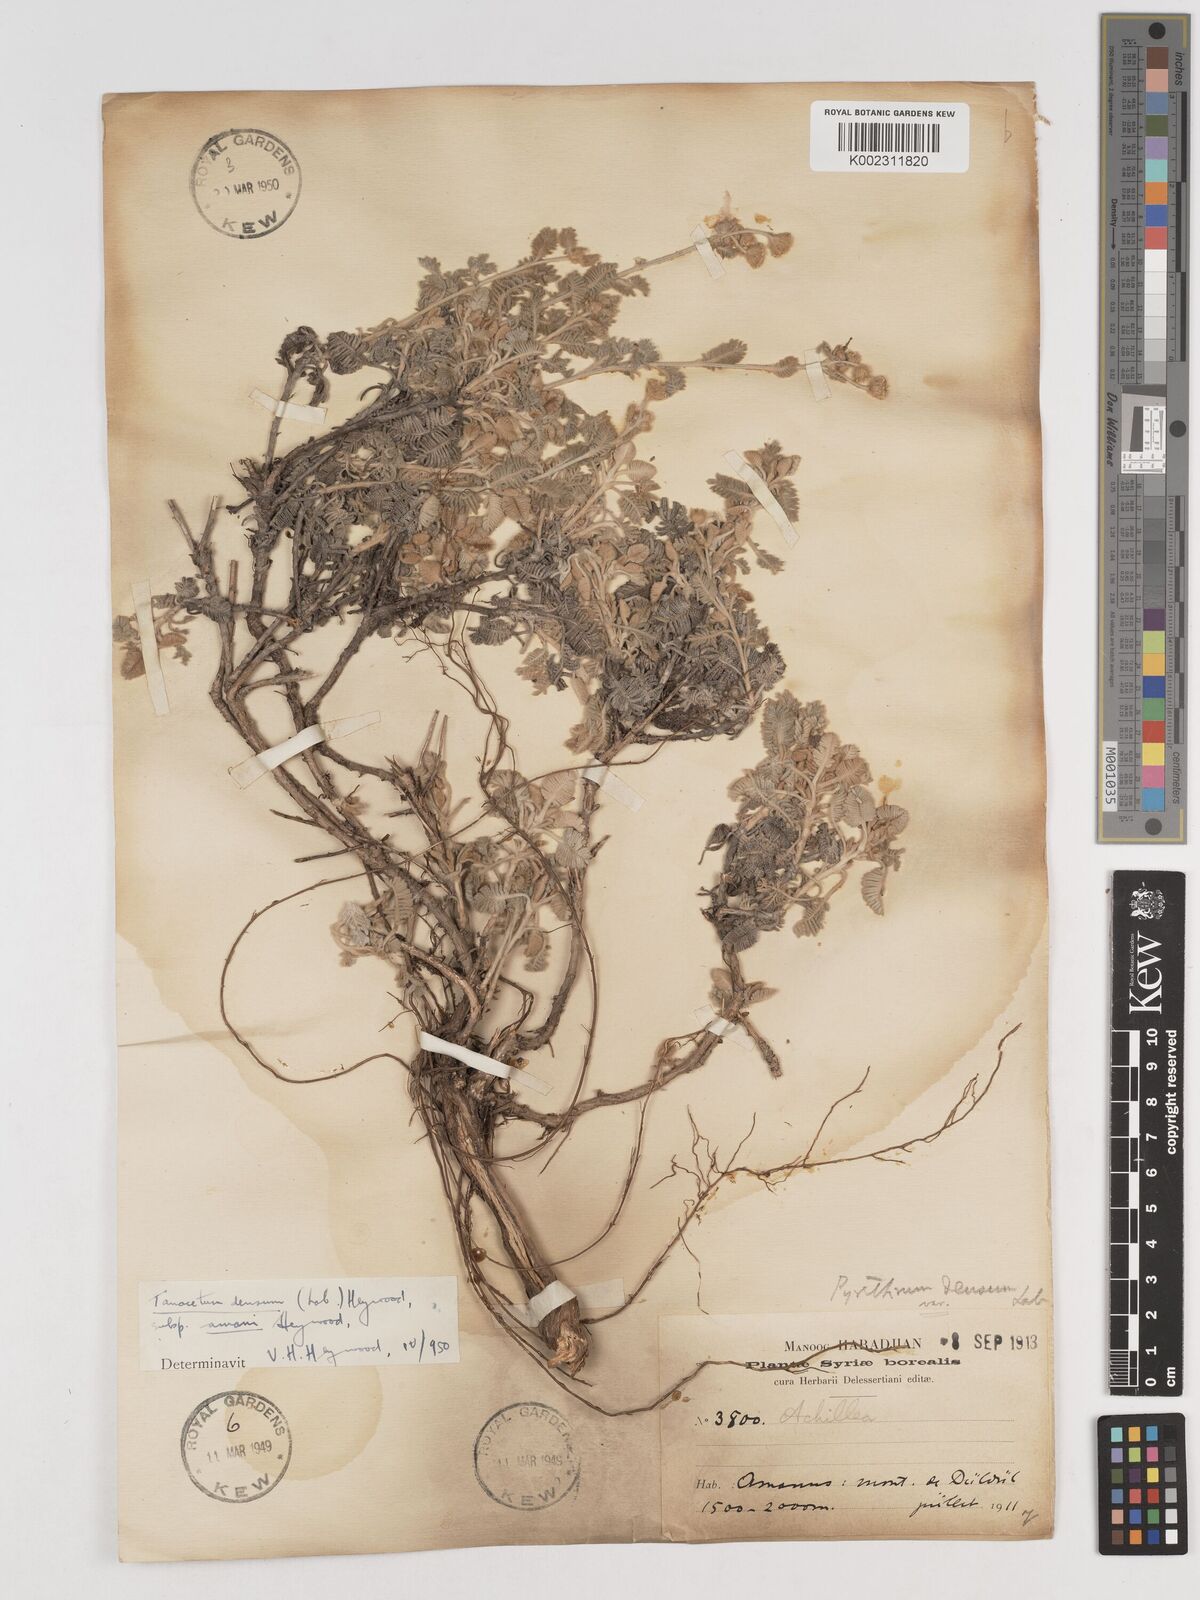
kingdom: Plantae
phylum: Tracheophyta
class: Magnoliopsida
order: Asterales
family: Asteraceae
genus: Tanacetum
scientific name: Tanacetum densum
